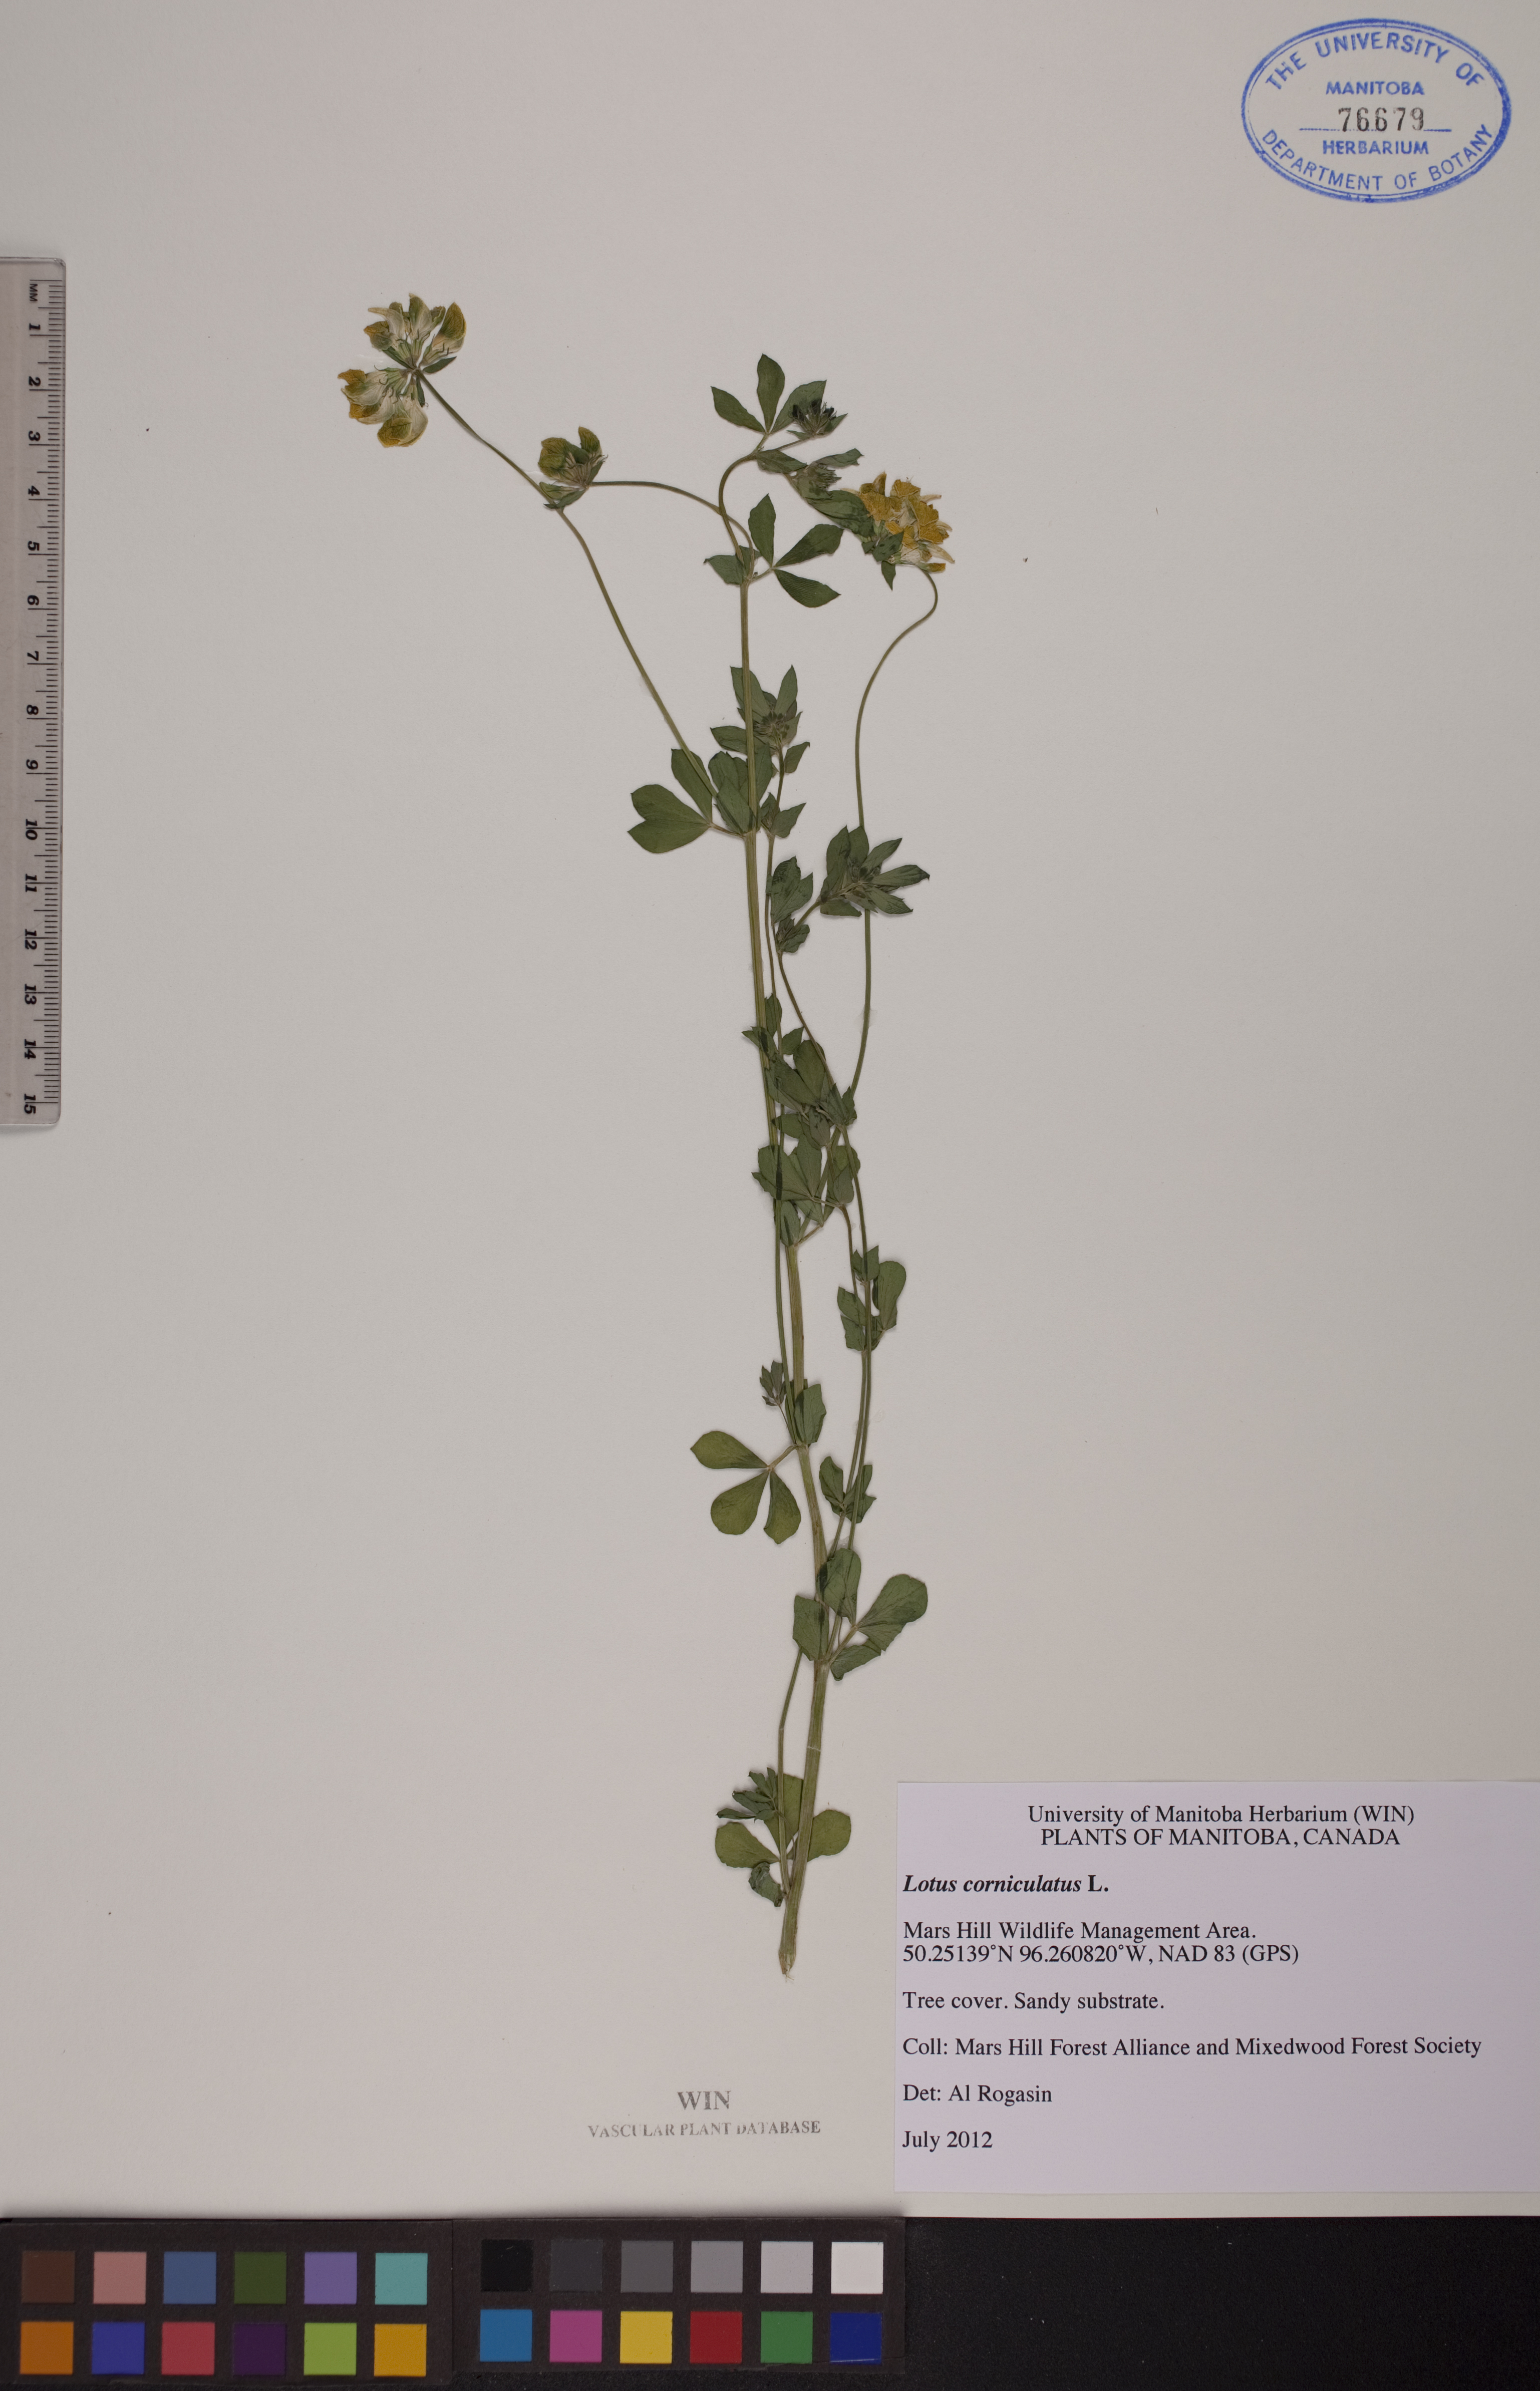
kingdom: Plantae
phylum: Tracheophyta
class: Magnoliopsida
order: Fabales
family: Fabaceae
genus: Lotus
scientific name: Lotus corniculatus
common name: Common bird's-foot-trefoil
